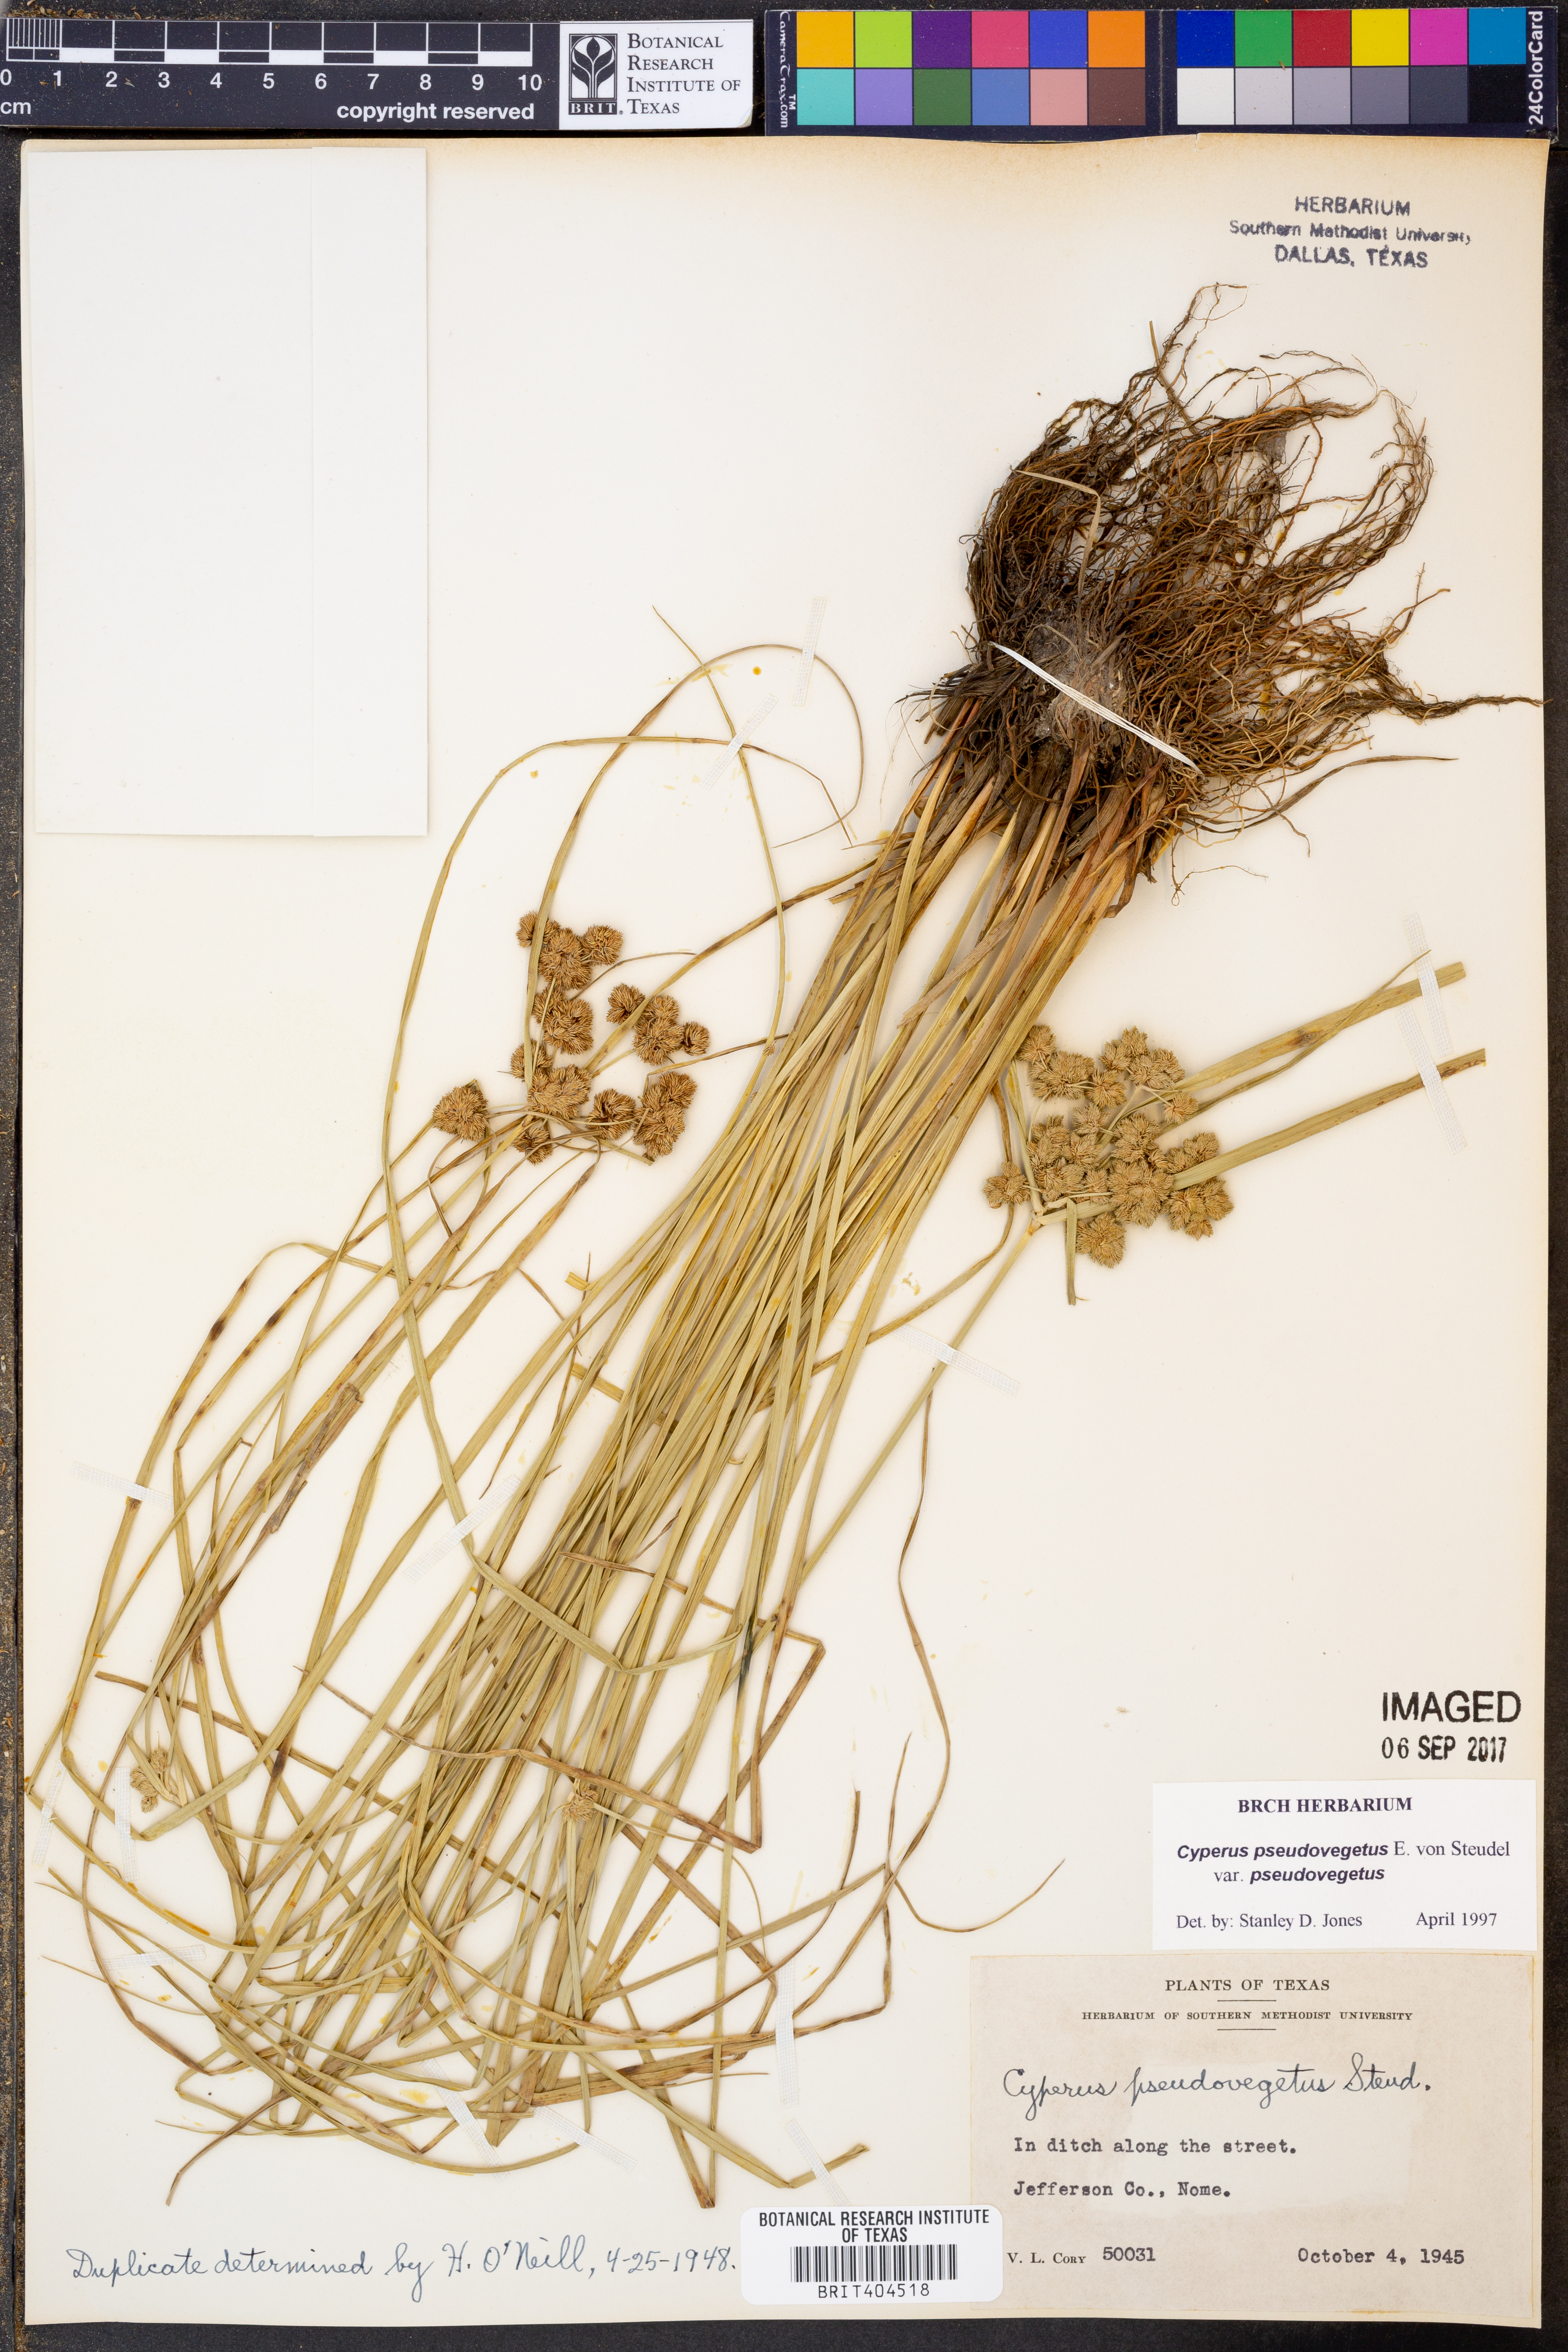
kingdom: Plantae
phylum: Tracheophyta
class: Liliopsida
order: Poales
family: Cyperaceae
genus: Cyperus
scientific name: Cyperus pseudovegetus
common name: Marsh flat sedge
